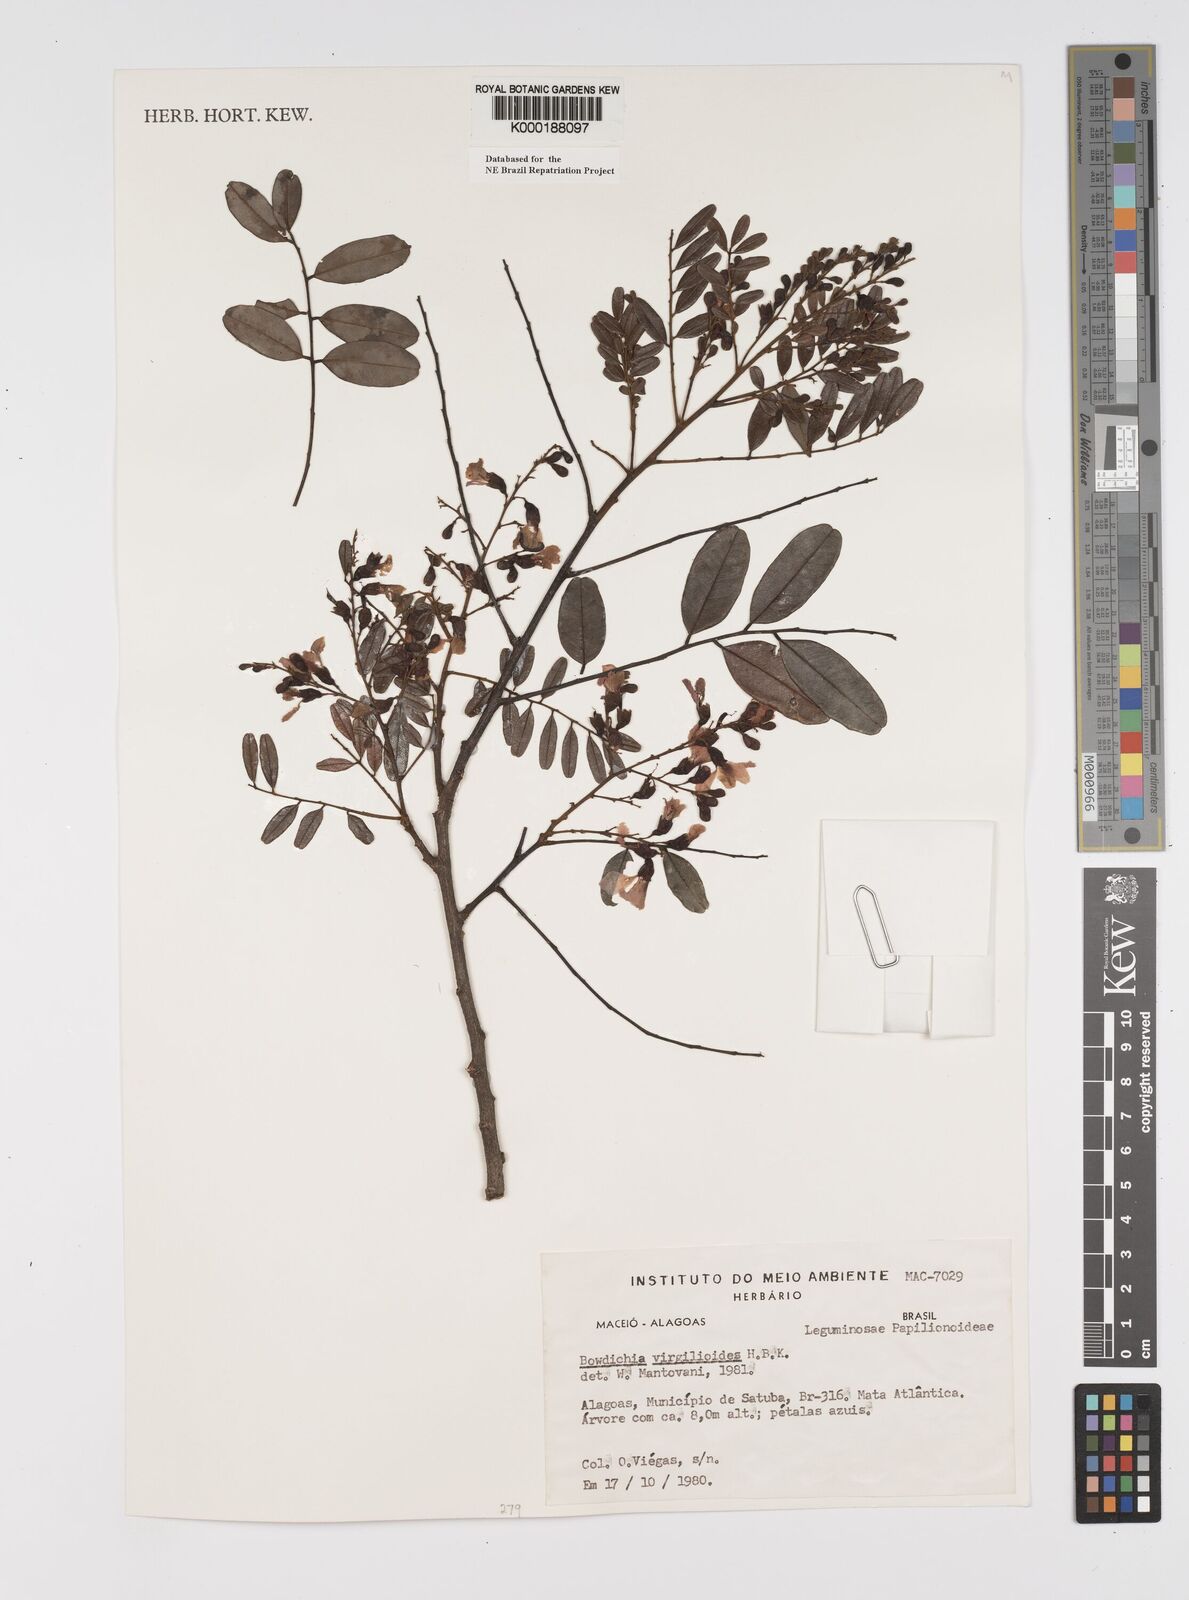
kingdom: Plantae
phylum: Tracheophyta
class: Magnoliopsida
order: Fabales
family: Fabaceae
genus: Bowdichia
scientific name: Bowdichia virgilioides
